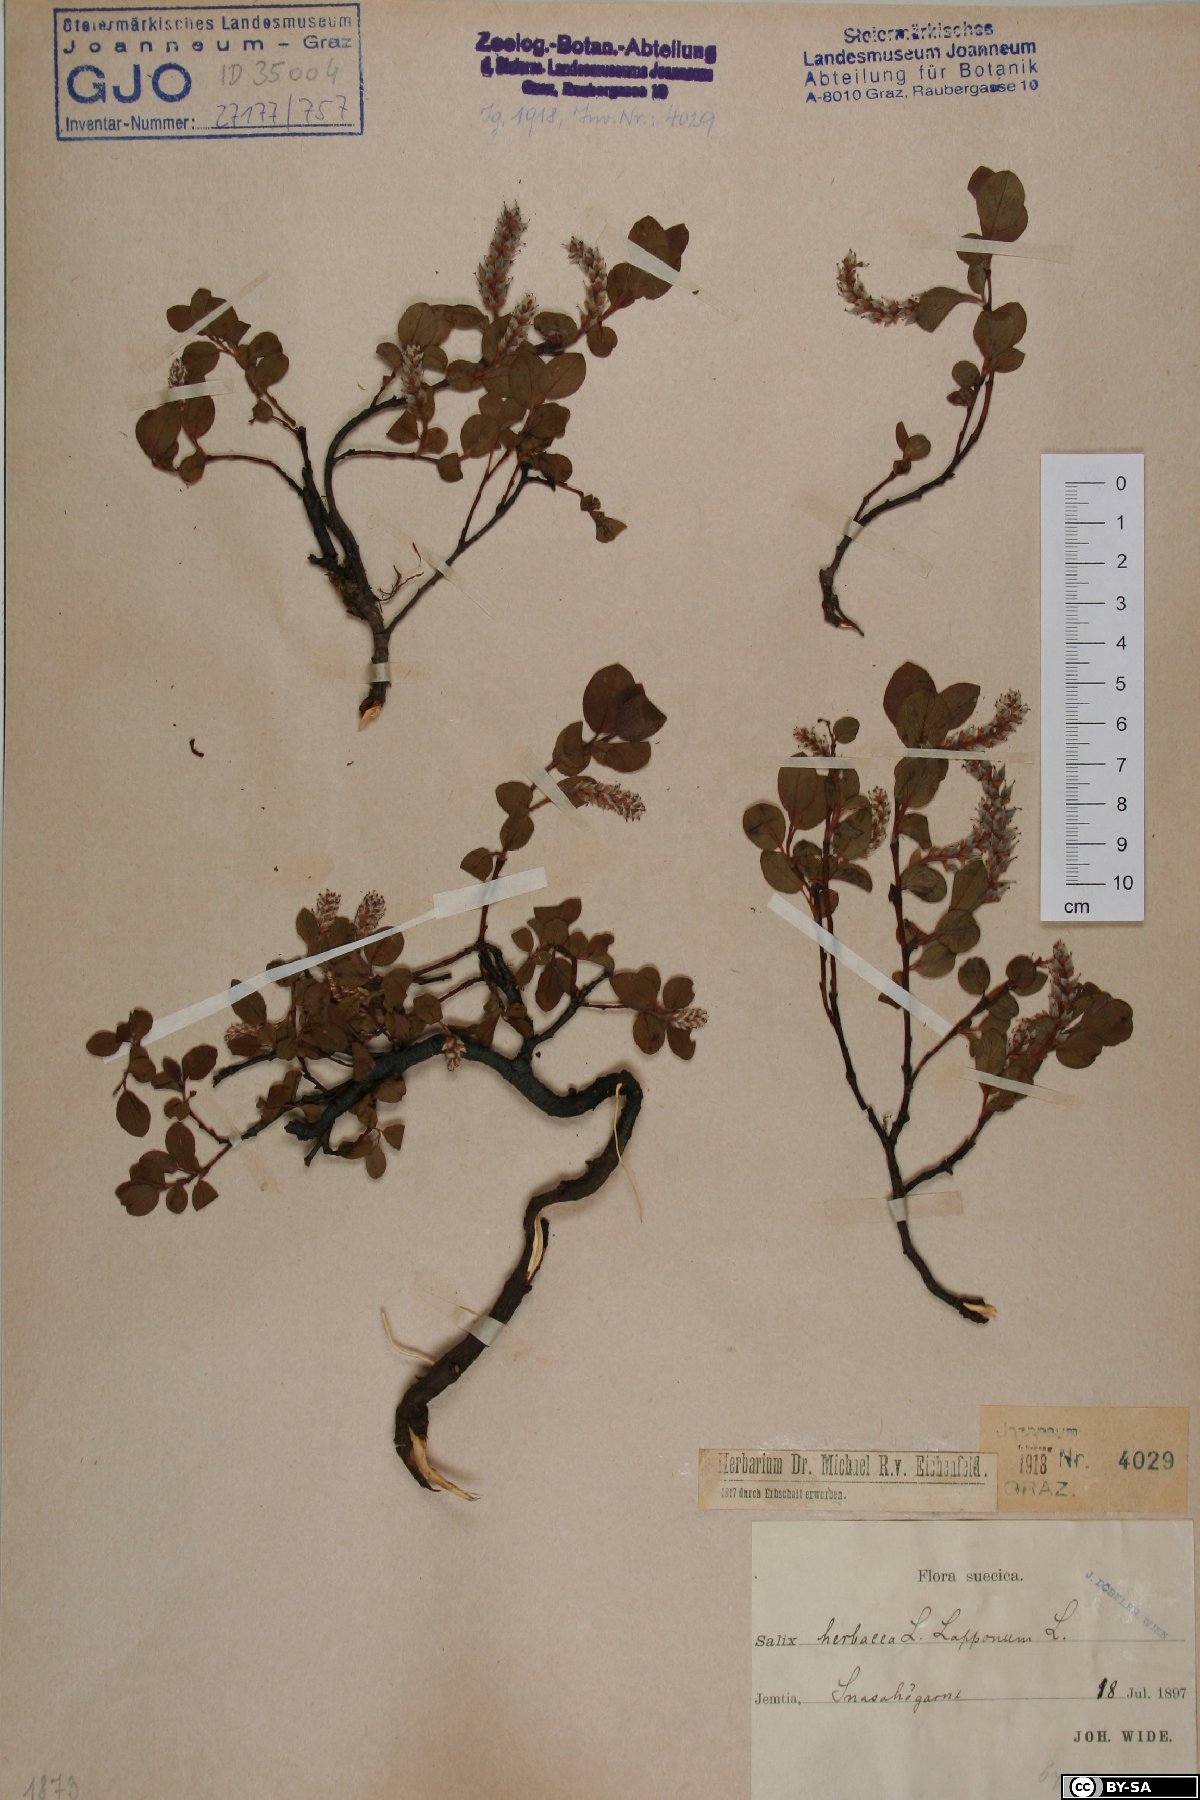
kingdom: Plantae
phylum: Tracheophyta
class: Magnoliopsida
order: Malpighiales
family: Salicaceae
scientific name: Salicaceae
